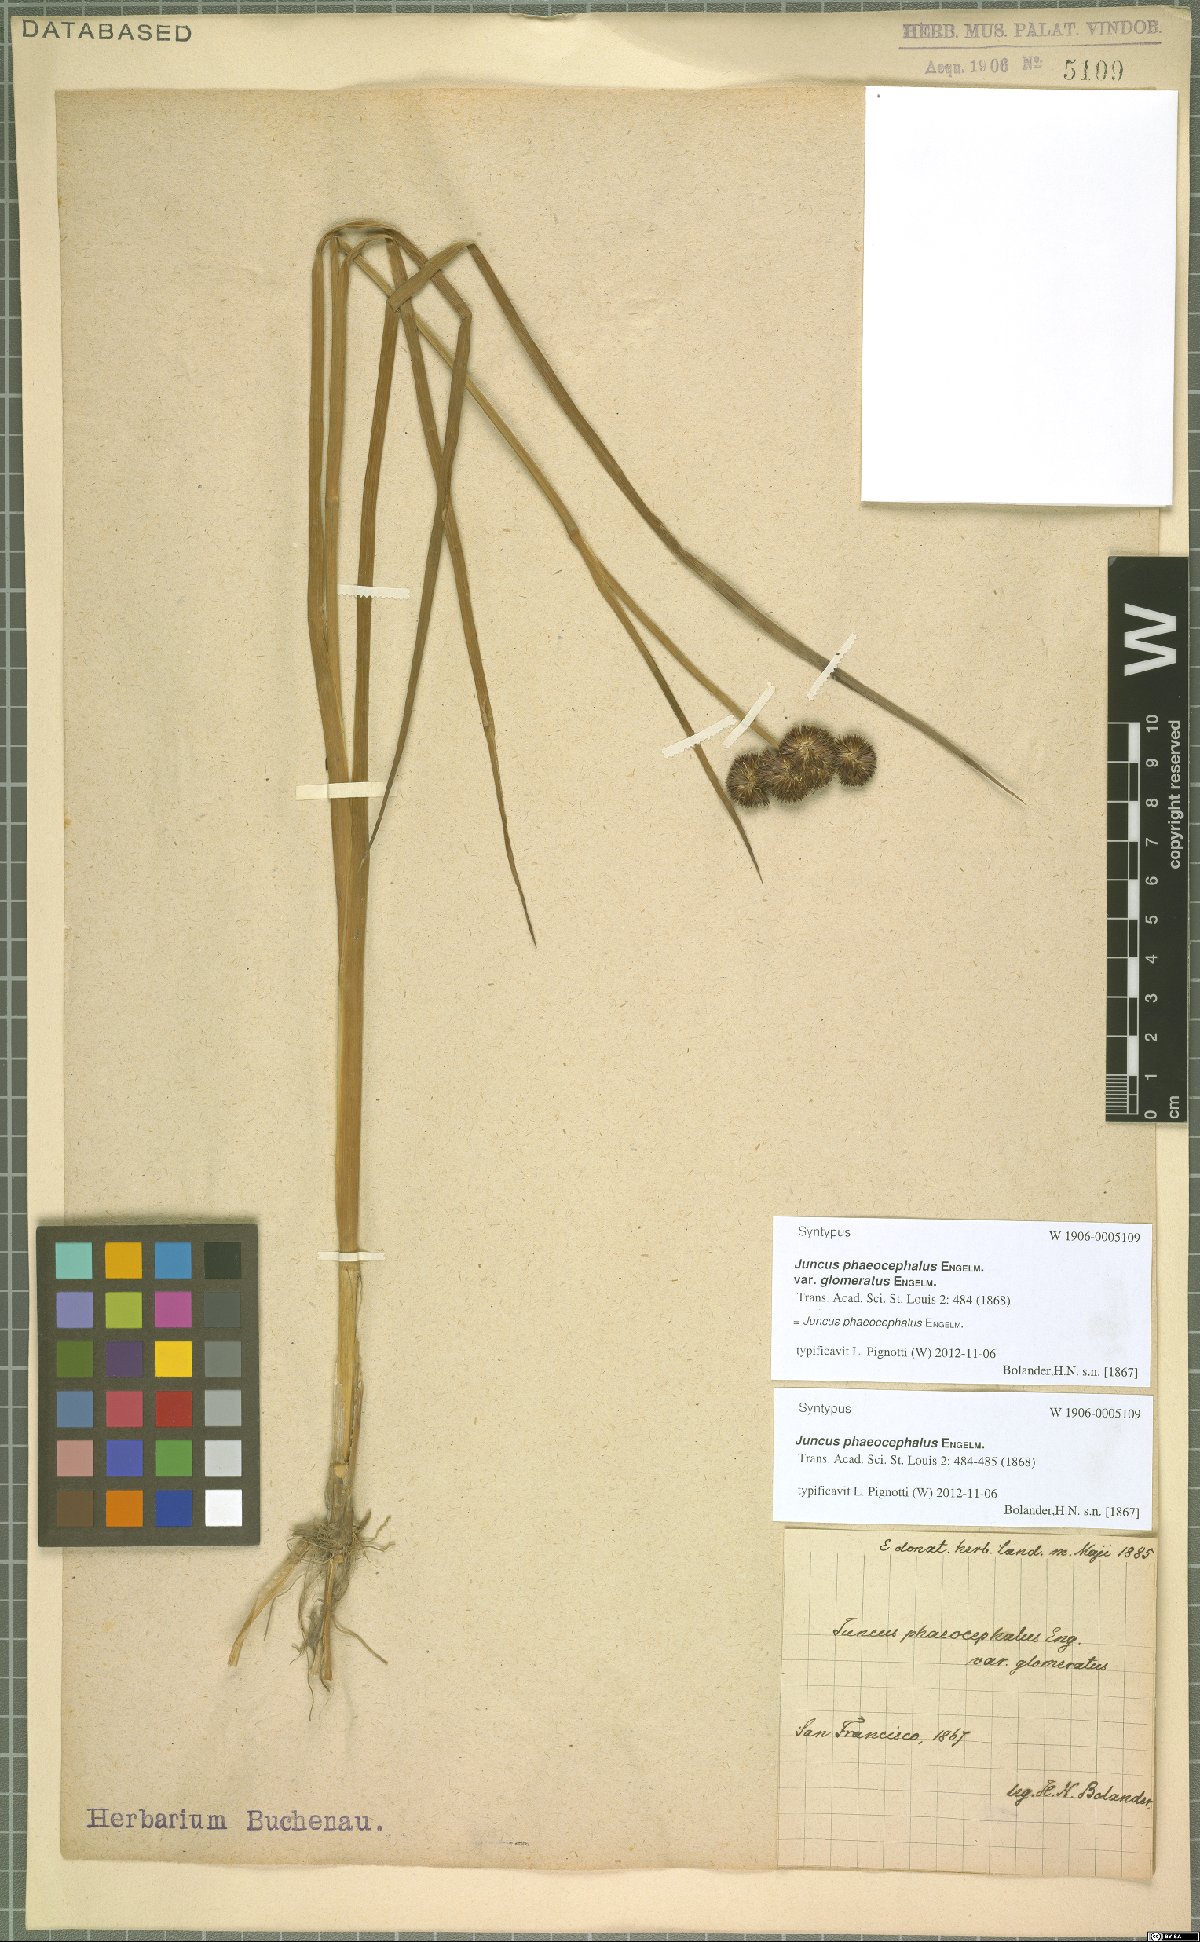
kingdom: Plantae
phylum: Tracheophyta
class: Liliopsida
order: Poales
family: Juncaceae
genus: Juncus
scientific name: Juncus phaeocephalus
